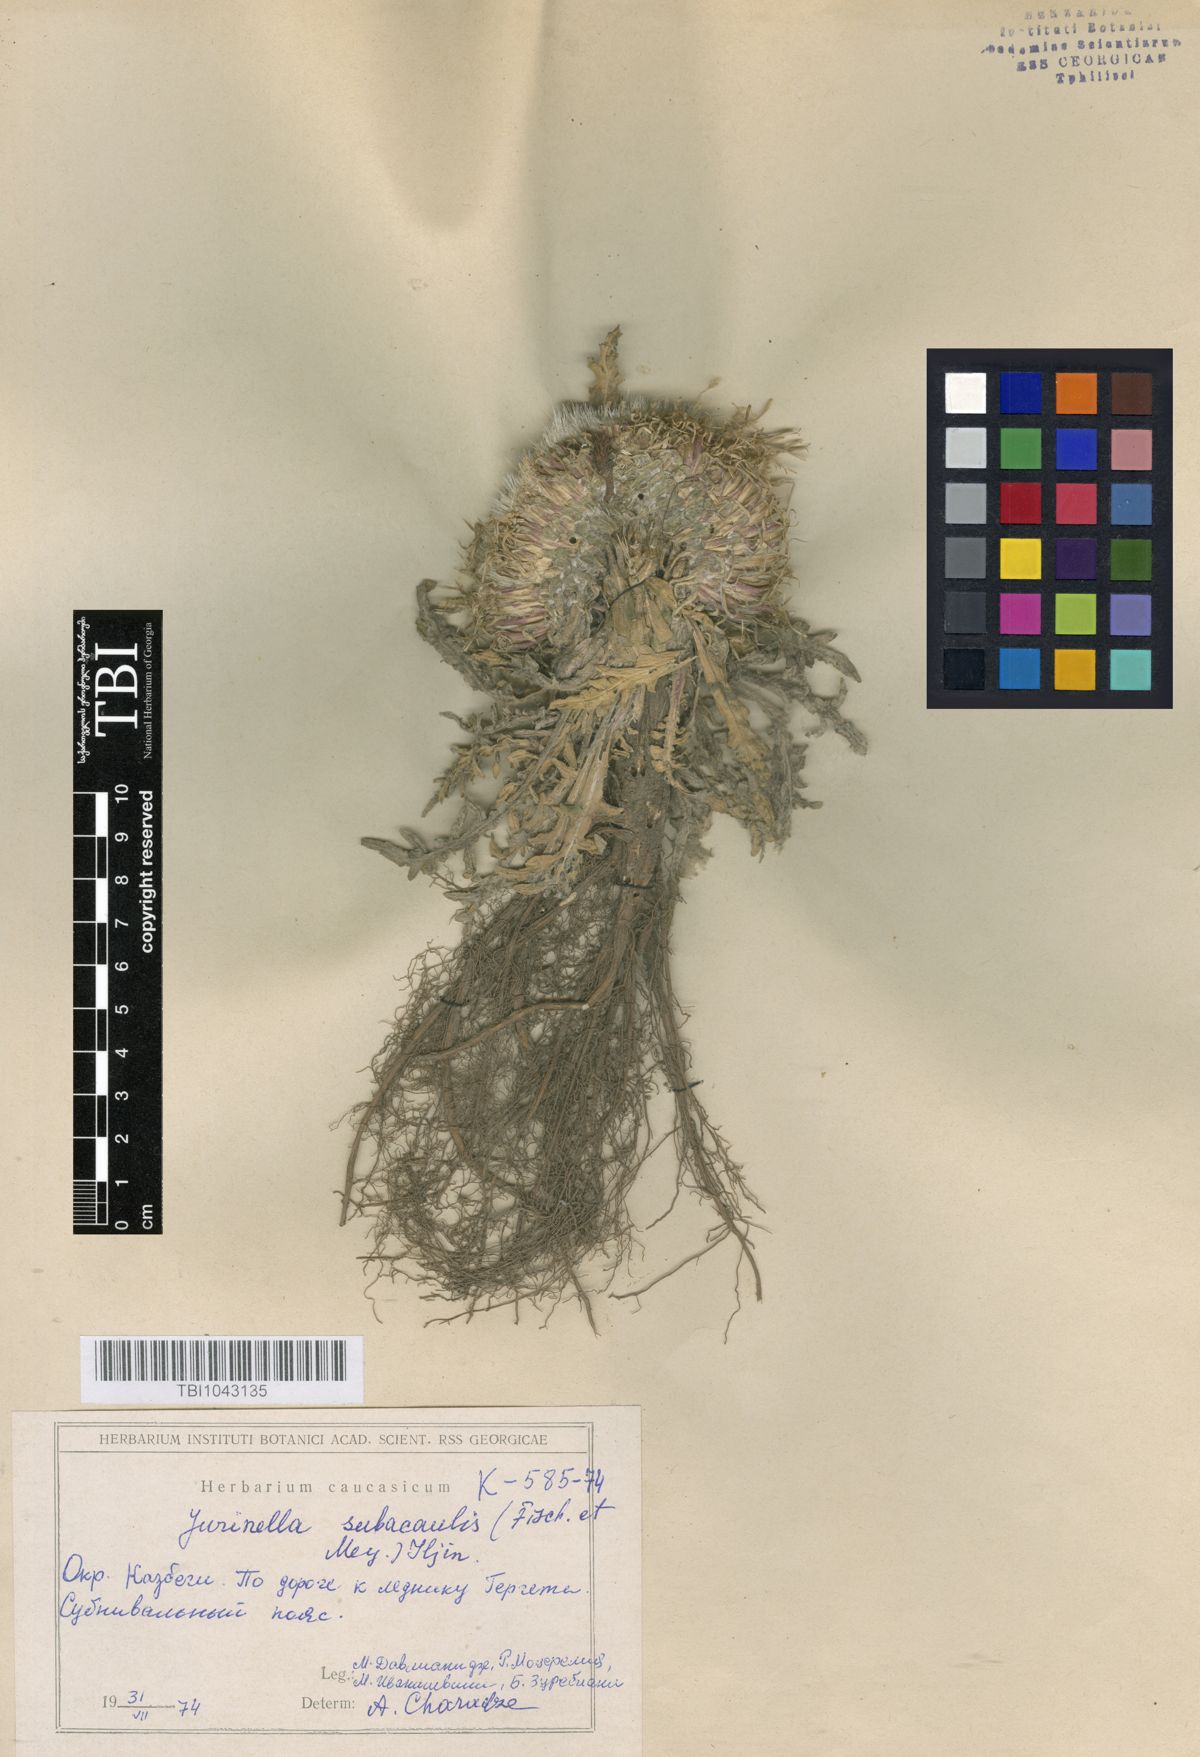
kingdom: Plantae
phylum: Tracheophyta
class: Magnoliopsida
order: Asterales
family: Asteraceae
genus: Jurinea
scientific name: Jurinea moschus
